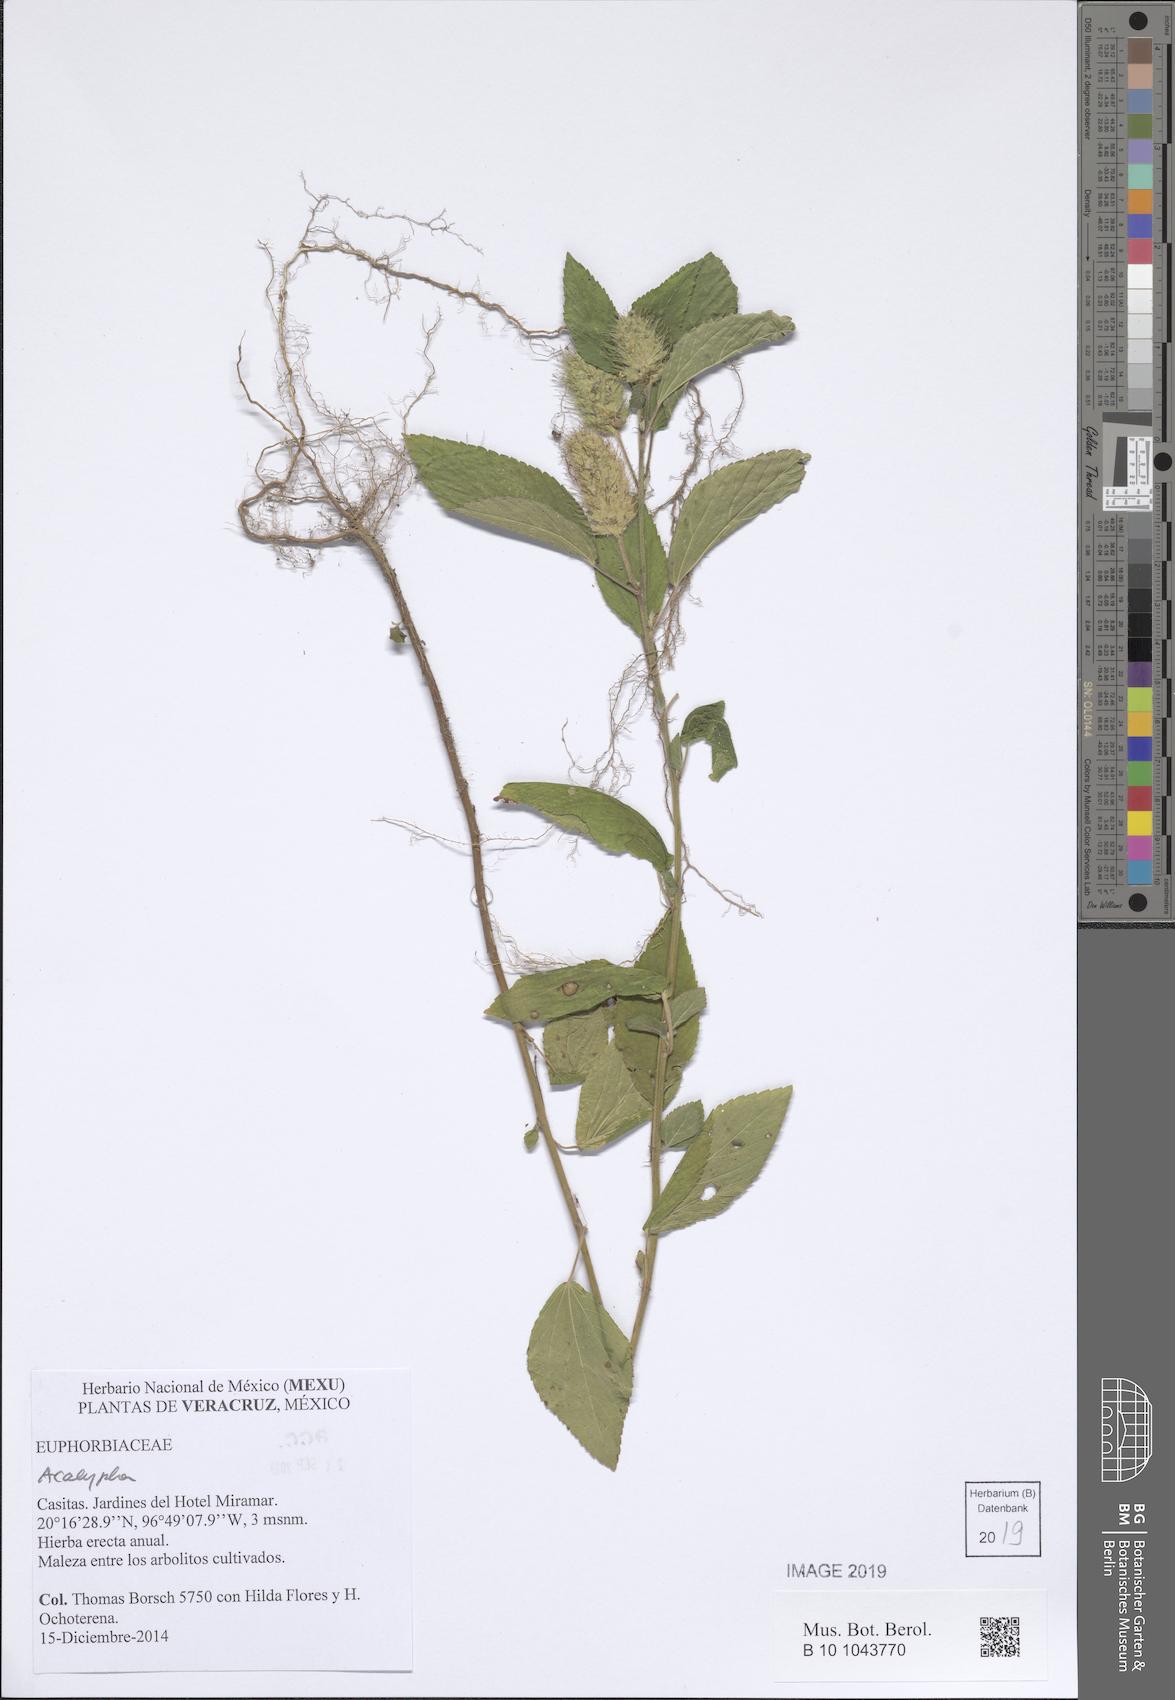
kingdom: Plantae
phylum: Tracheophyta
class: Magnoliopsida
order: Malpighiales
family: Euphorbiaceae
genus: Acalypha
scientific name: Acalypha
